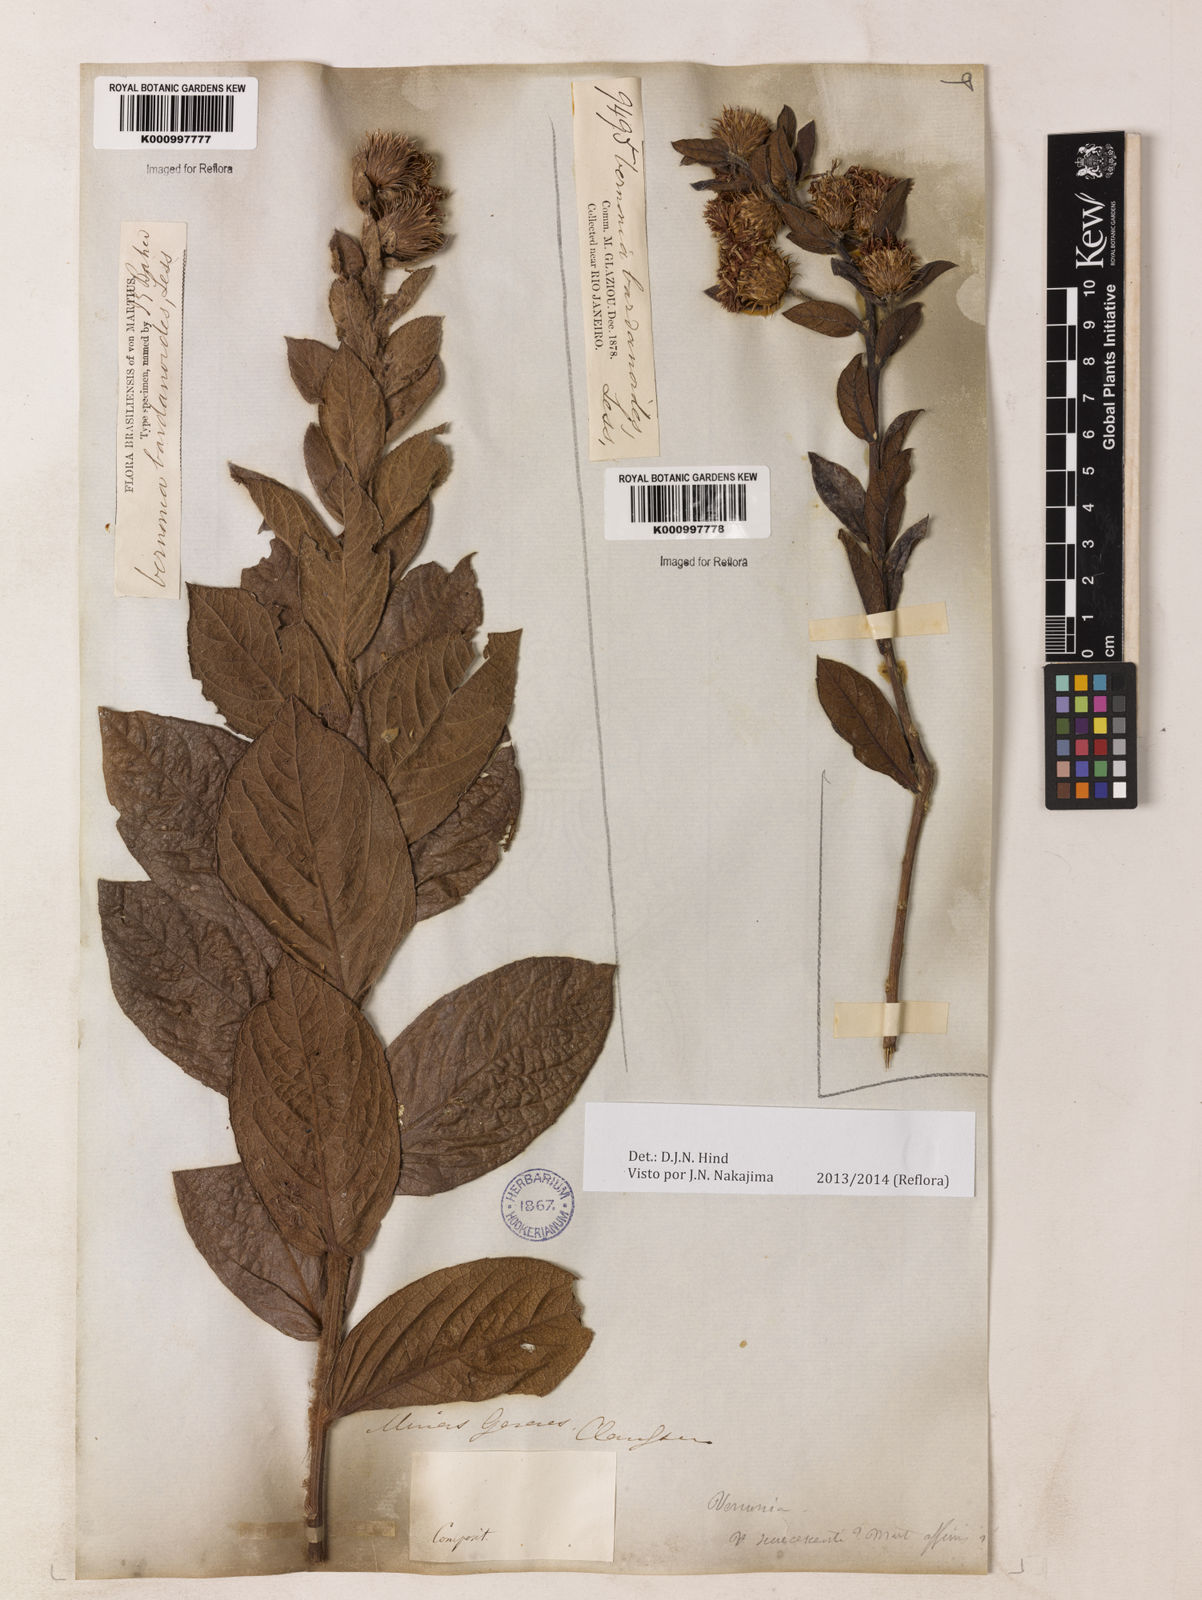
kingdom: Plantae
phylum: Tracheophyta
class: Magnoliopsida
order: Asterales
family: Asteraceae
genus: Lessingianthus
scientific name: Lessingianthus bardanioides
